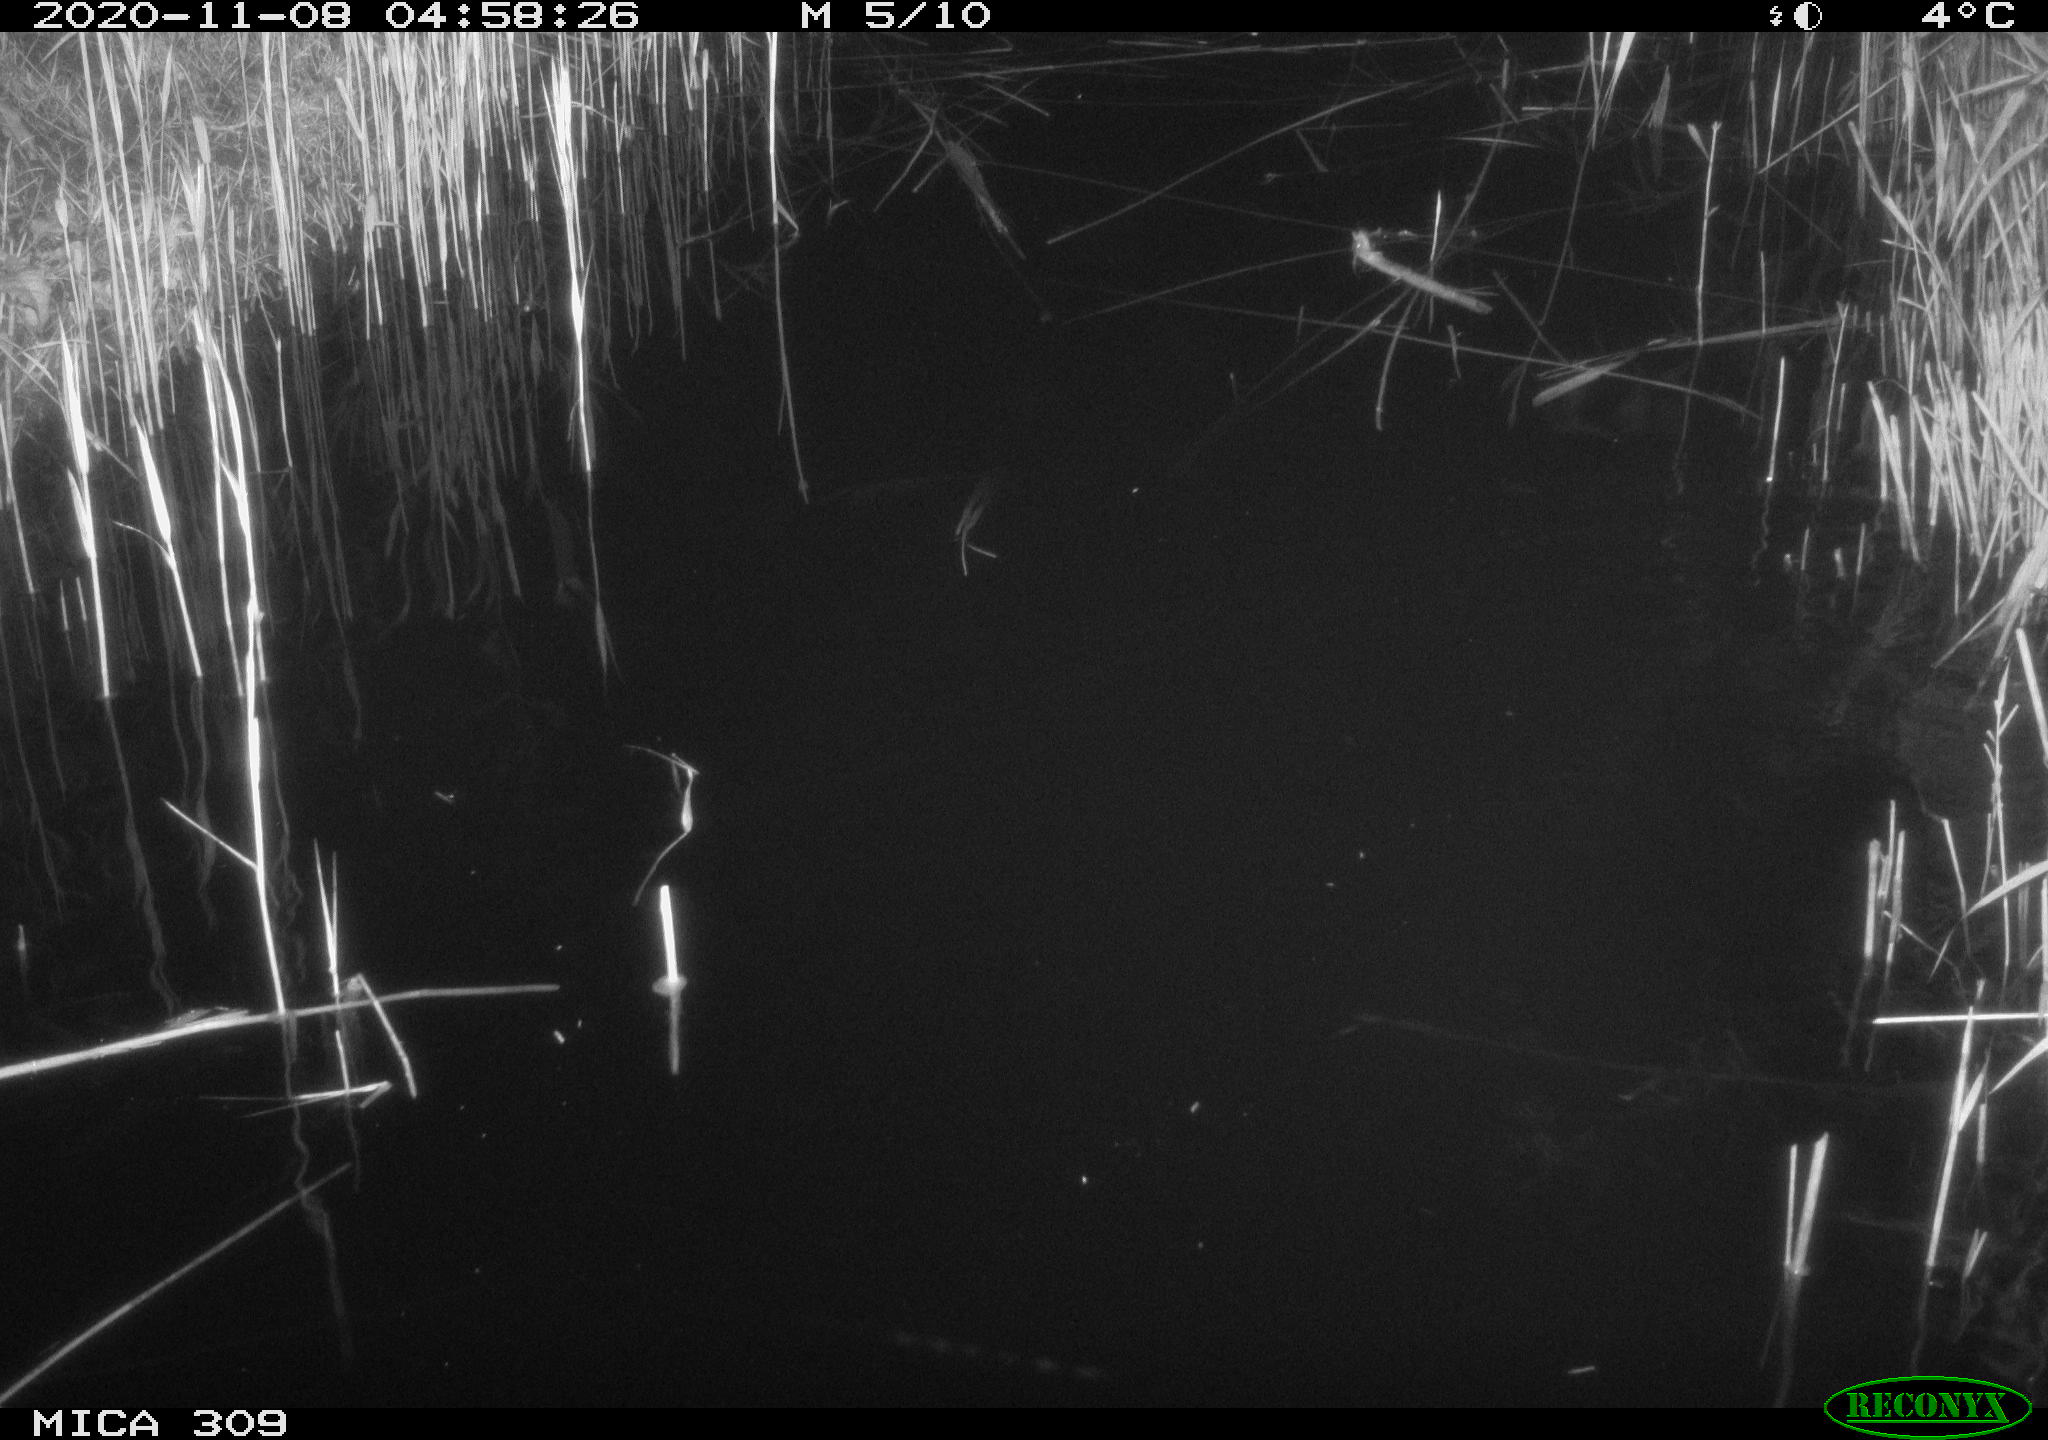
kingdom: Animalia
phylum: Chordata
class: Mammalia
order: Rodentia
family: Muridae
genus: Rattus
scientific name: Rattus norvegicus
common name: Brown rat
